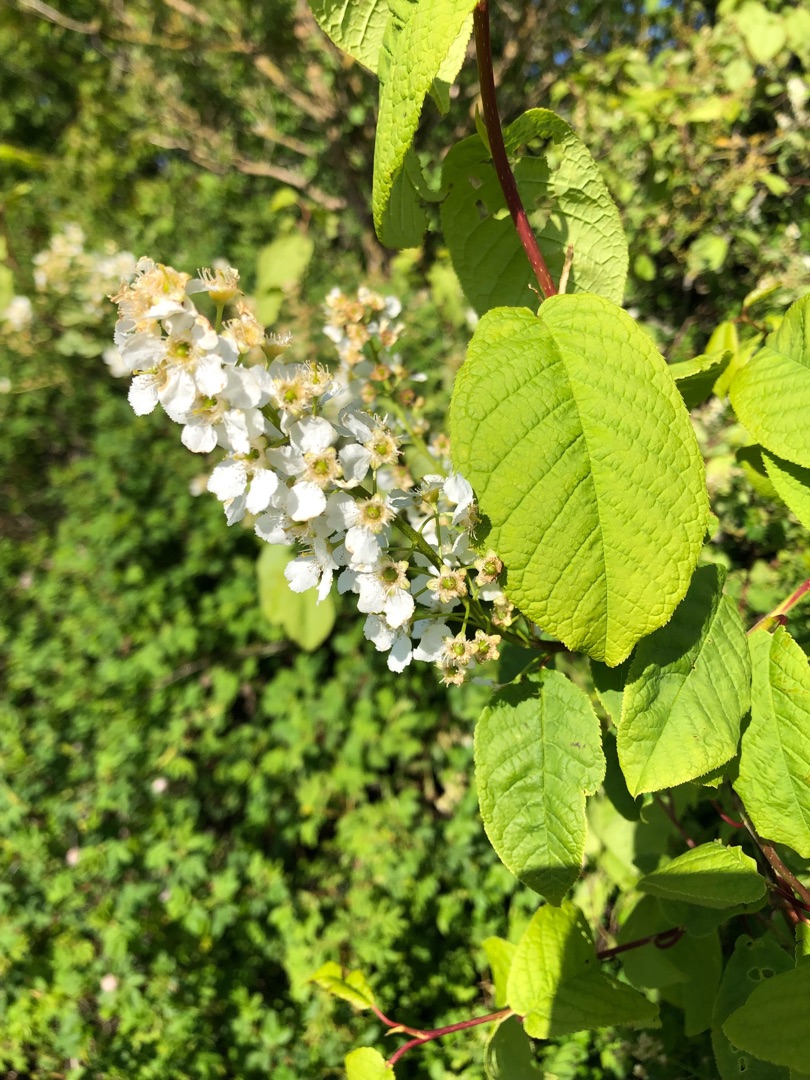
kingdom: Plantae
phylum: Tracheophyta
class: Magnoliopsida
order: Rosales
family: Rosaceae
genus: Prunus
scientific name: Prunus padus
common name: Almindelig hæg
